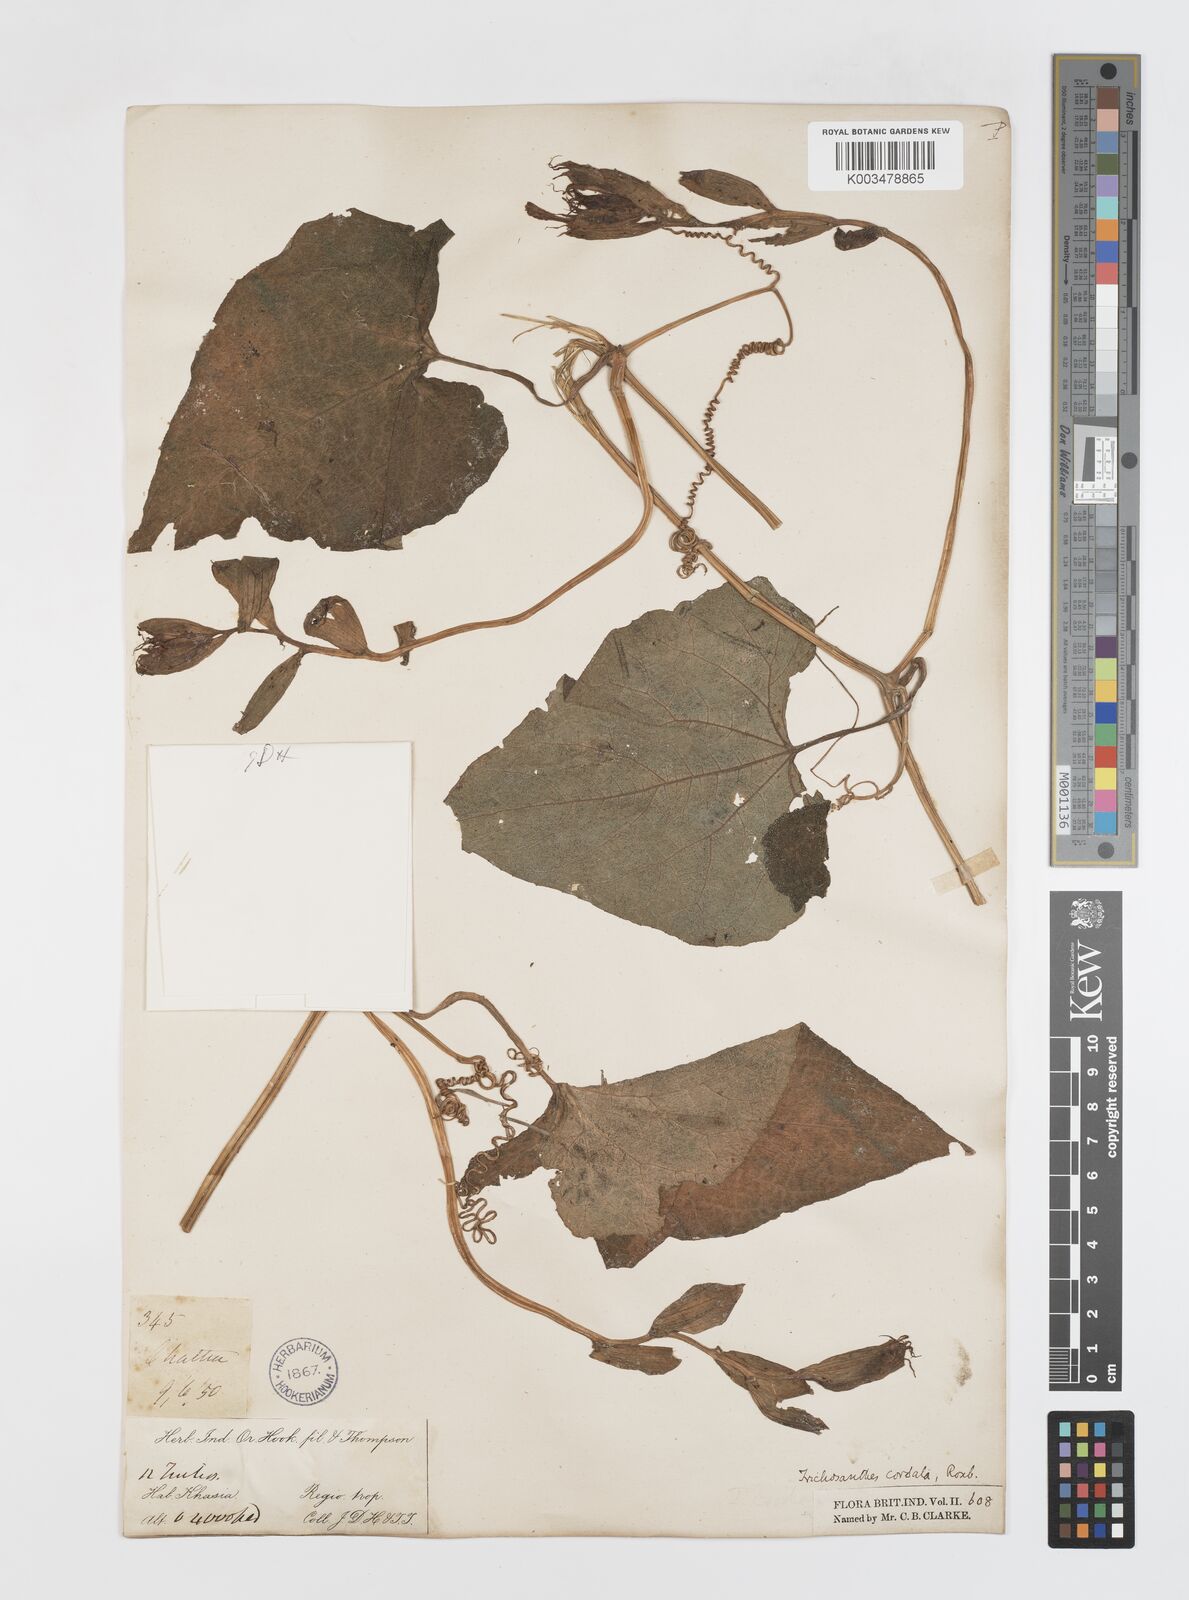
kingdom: Plantae
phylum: Tracheophyta
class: Magnoliopsida
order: Cucurbitales
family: Cucurbitaceae
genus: Trichosanthes
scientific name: Trichosanthes cordata
